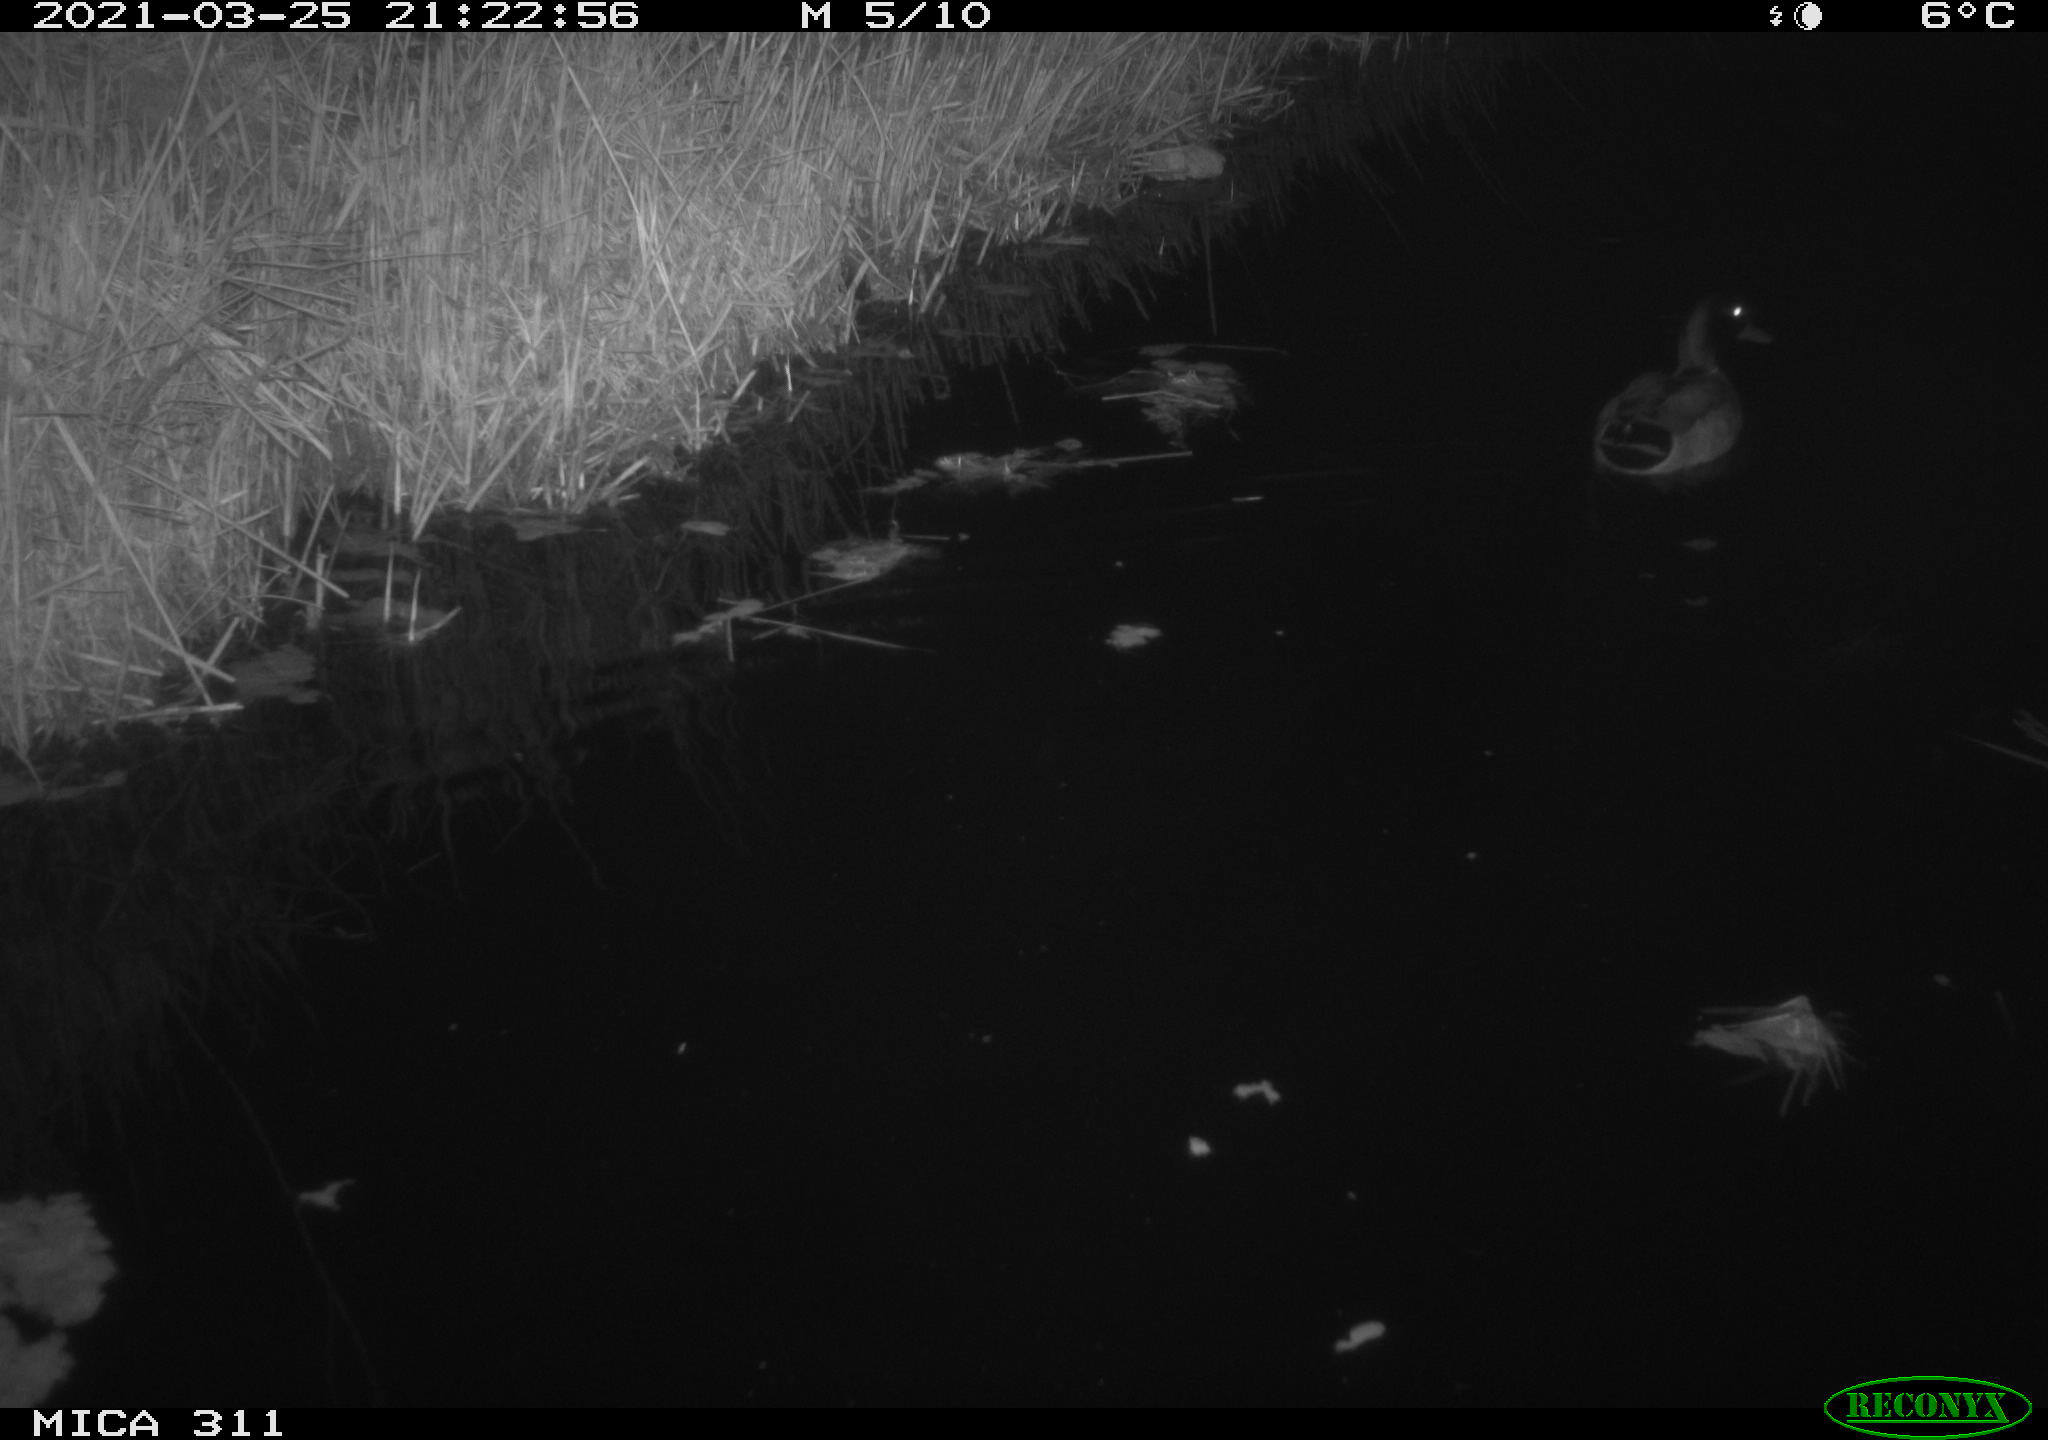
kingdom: Animalia
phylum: Chordata
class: Aves
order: Anseriformes
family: Anatidae
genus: Anas
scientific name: Anas
